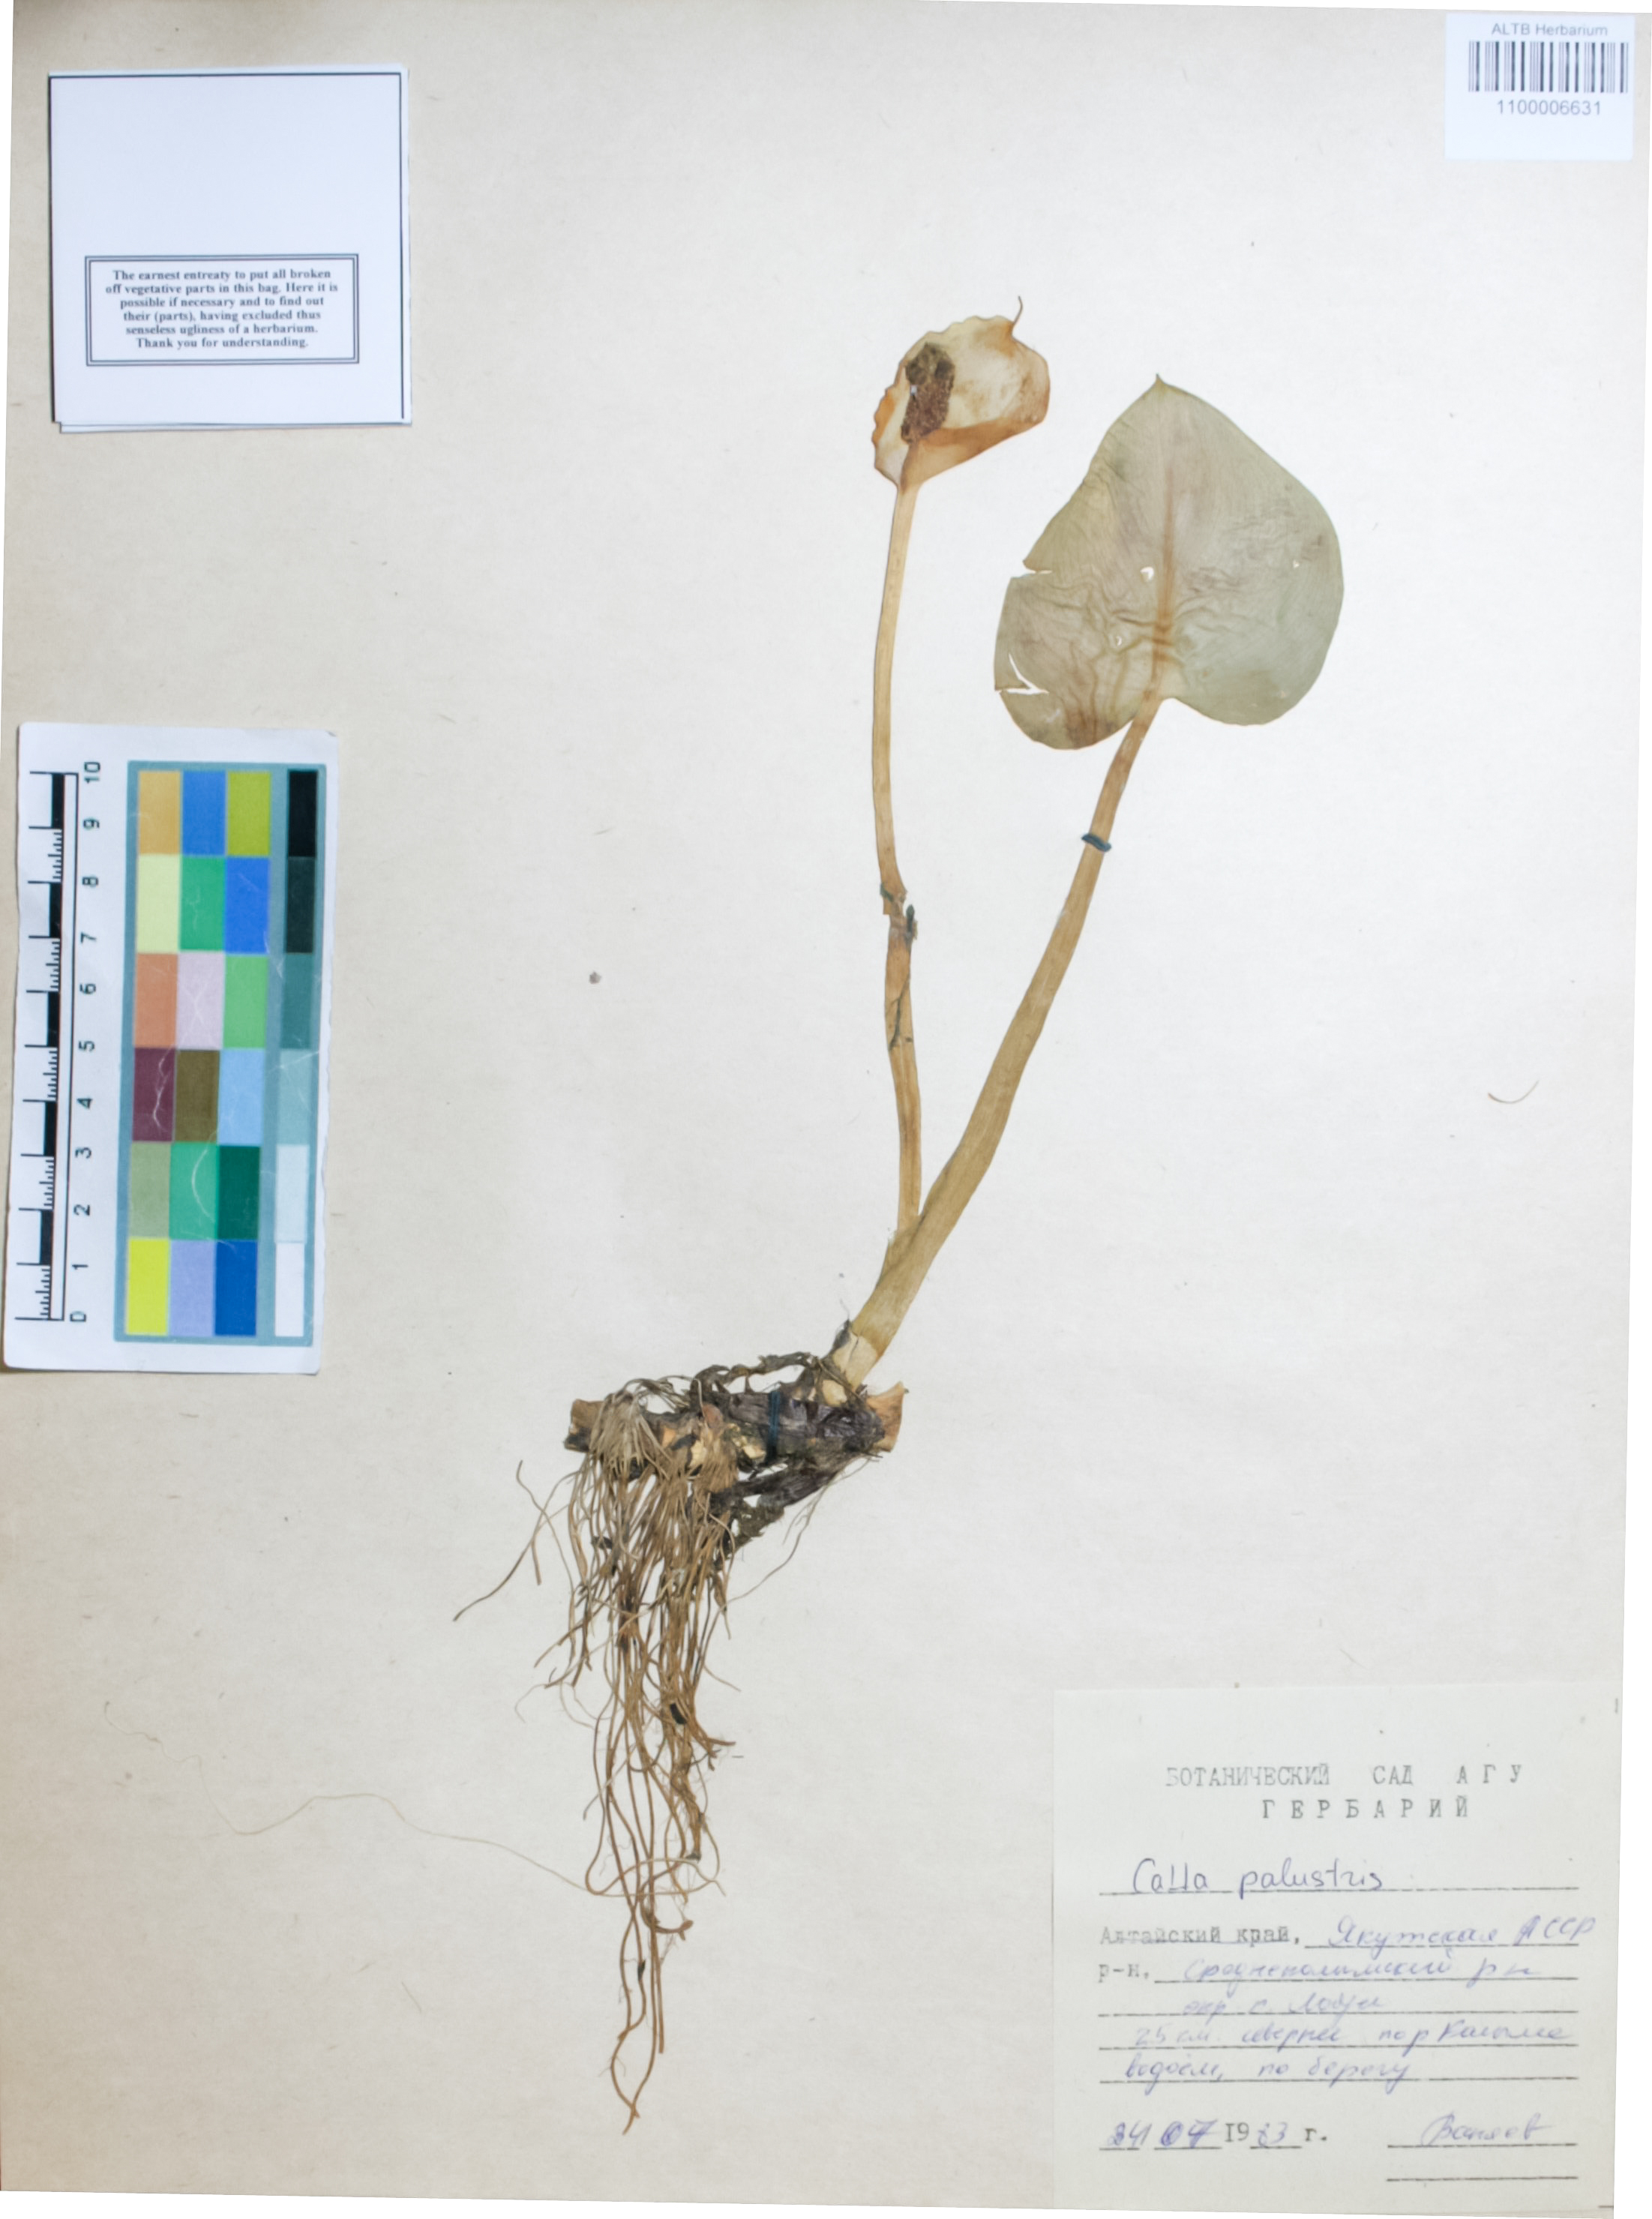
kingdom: Plantae
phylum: Tracheophyta
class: Liliopsida
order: Alismatales
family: Araceae
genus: Calla
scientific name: Calla palustris
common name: Bog arum
